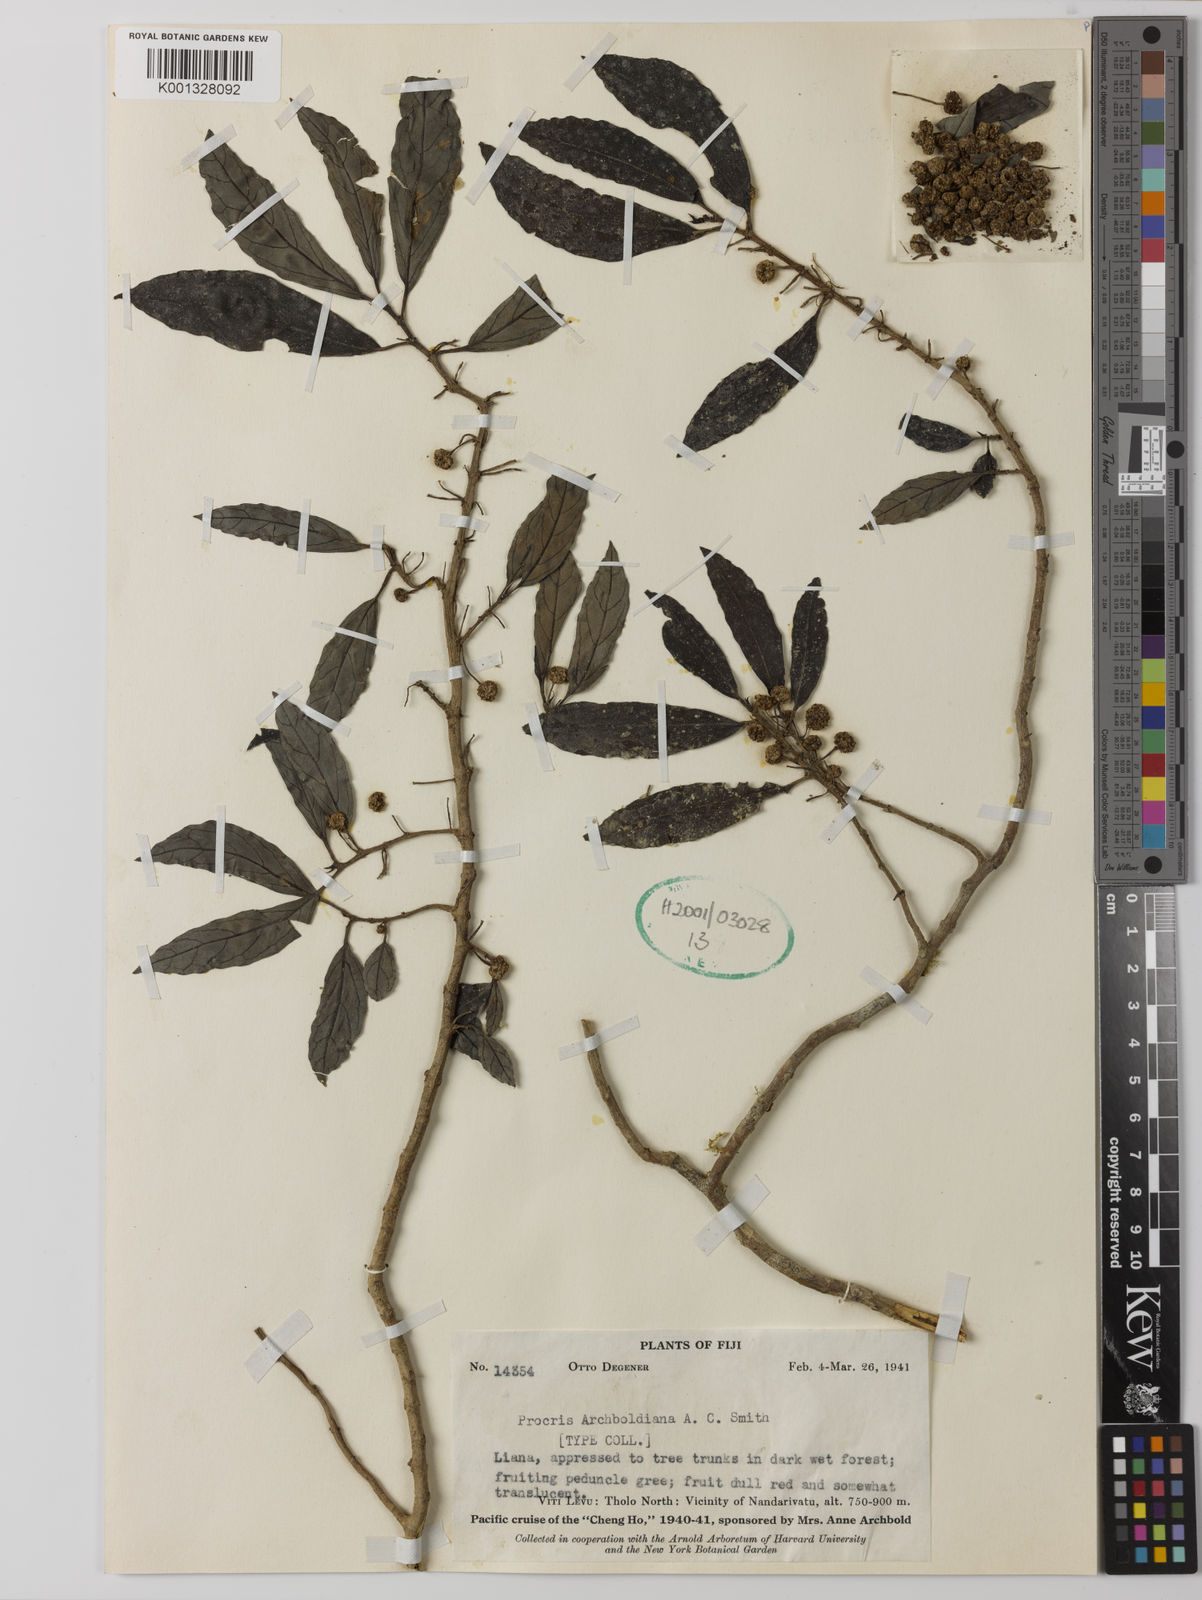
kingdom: Plantae
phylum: Tracheophyta
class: Magnoliopsida
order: Rosales
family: Urticaceae
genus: Procris
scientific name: Procris archboldiana
